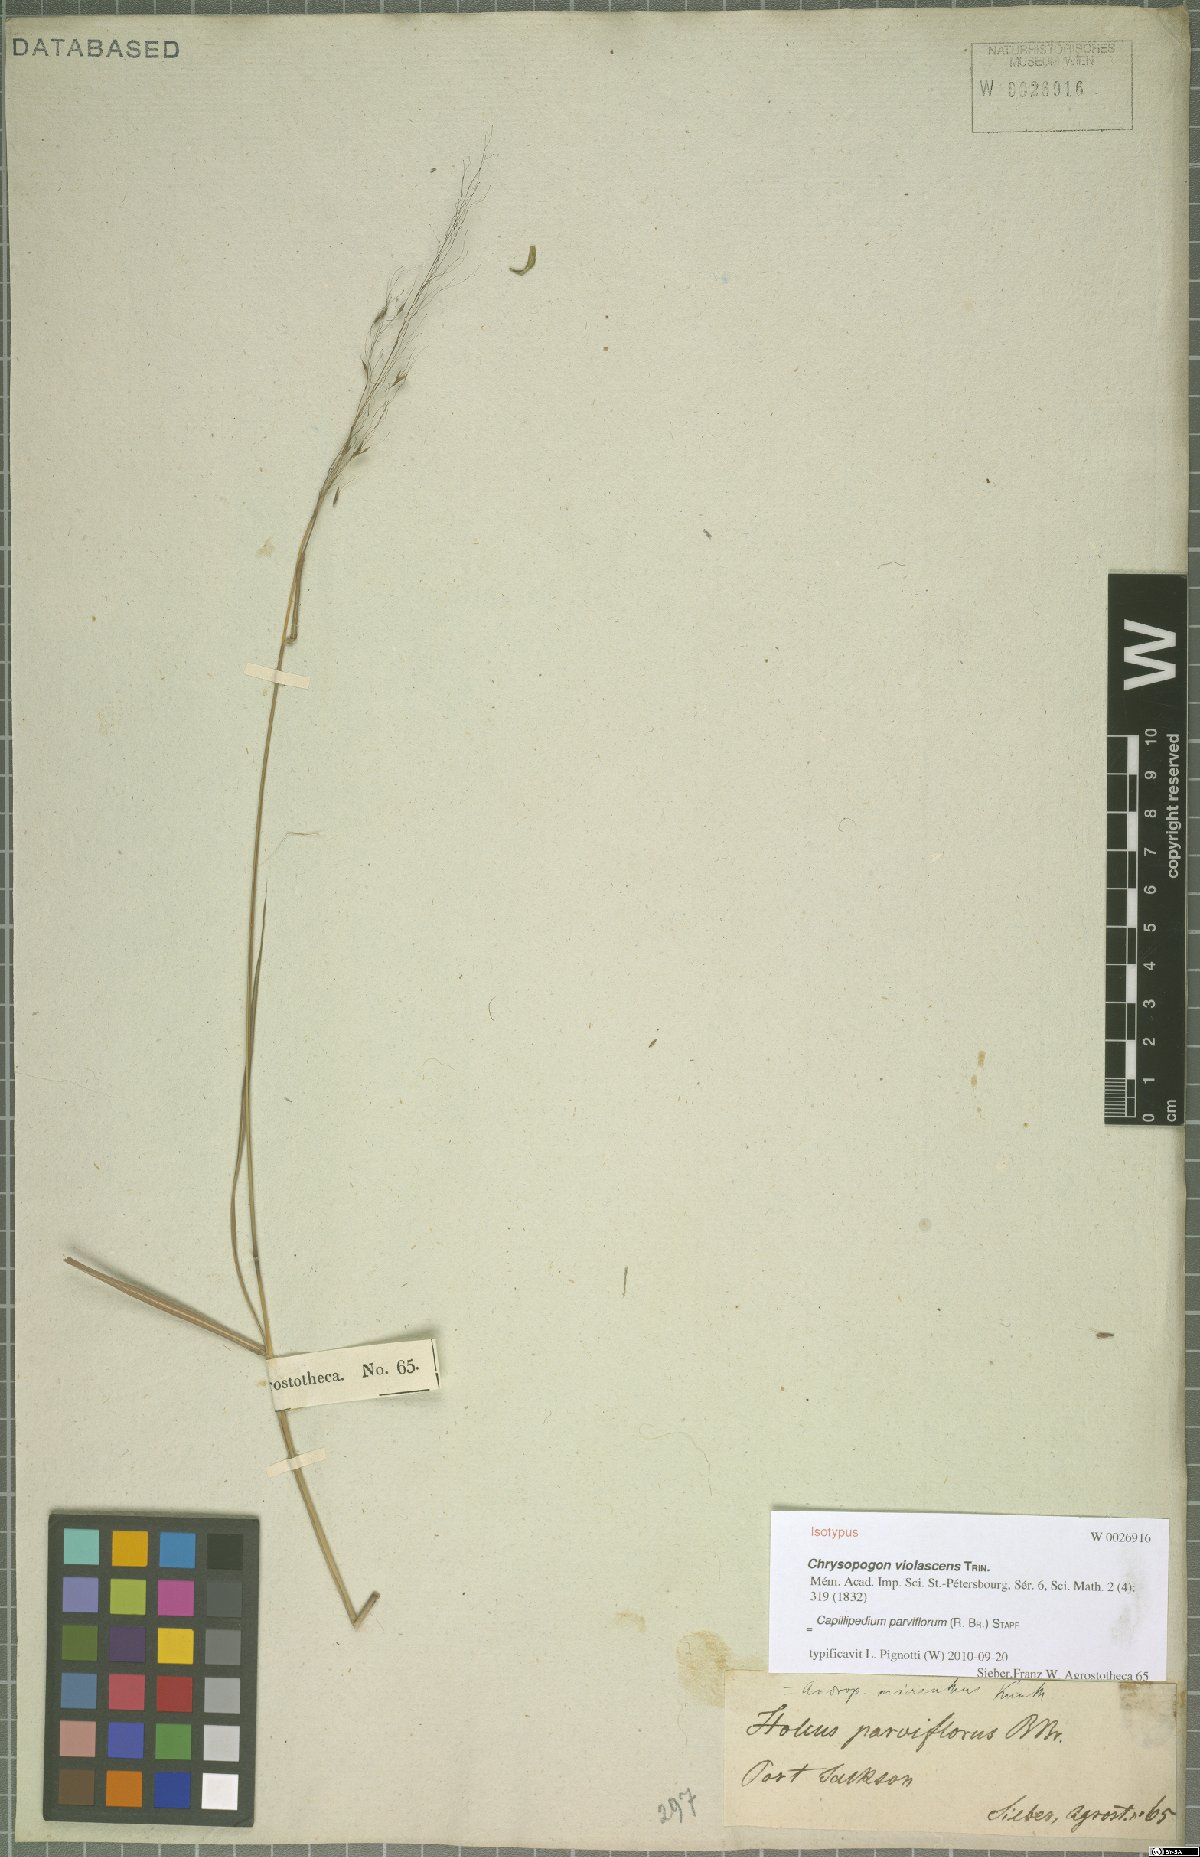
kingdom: Plantae
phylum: Tracheophyta
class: Liliopsida
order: Poales
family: Poaceae
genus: Capillipedium
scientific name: Capillipedium parviflorum
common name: Golden-beard
